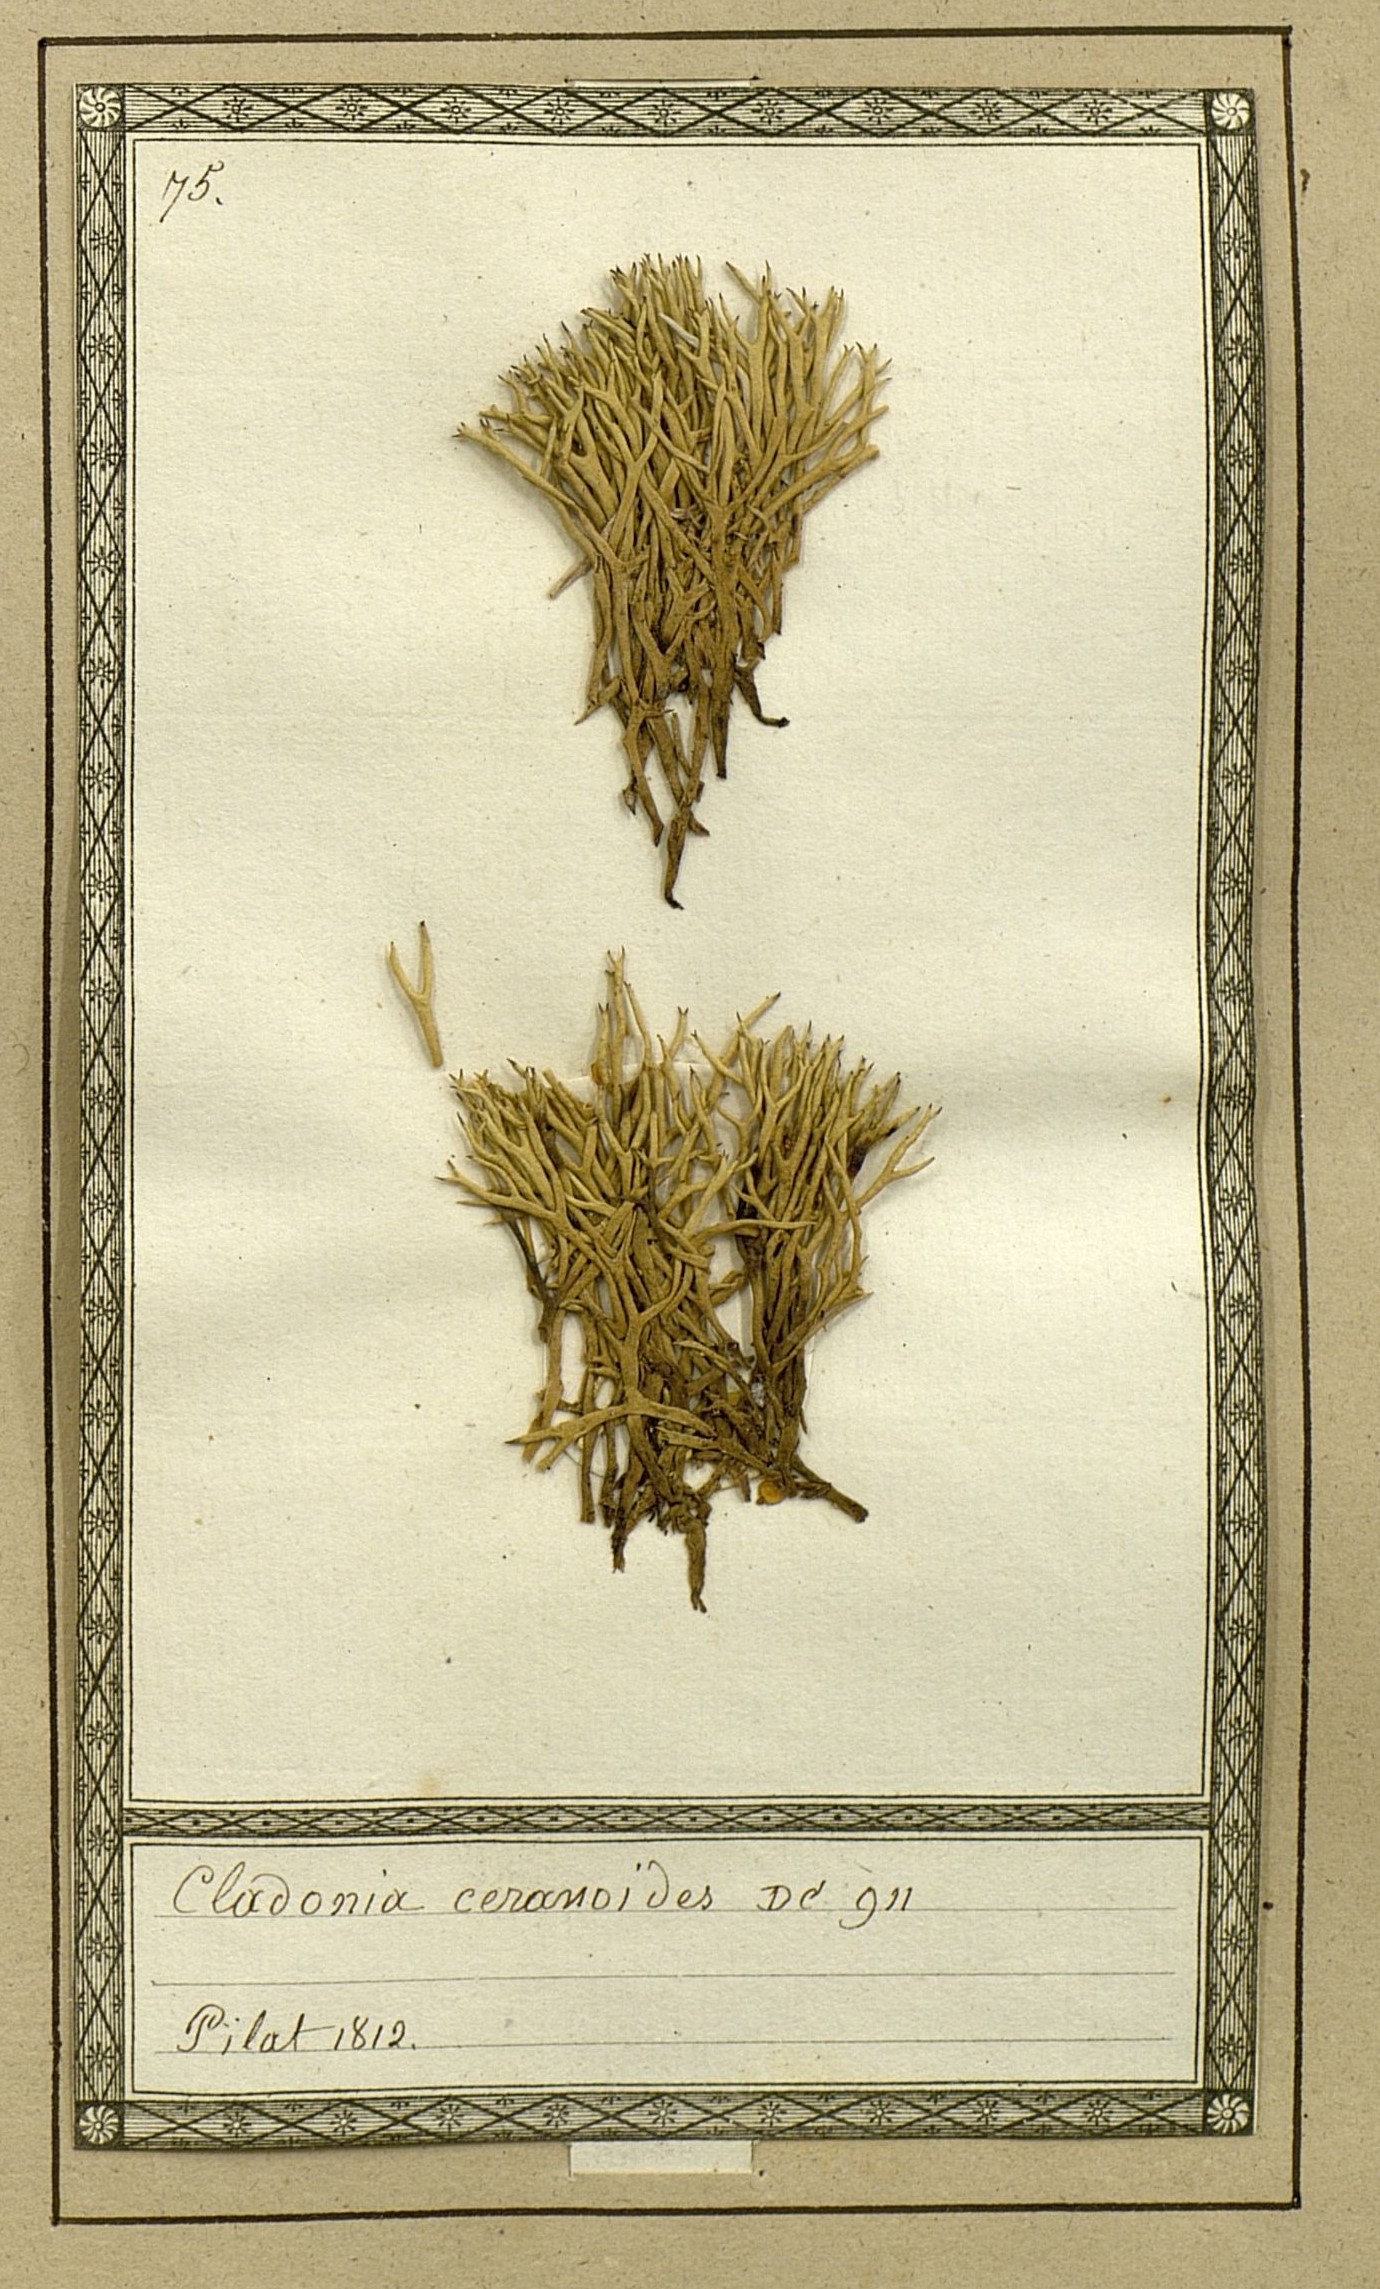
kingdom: Fungi
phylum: Ascomycota
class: Lecanoromycetes
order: Lecanorales
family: Cladoniaceae
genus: Cladonia
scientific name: Cladonia ceranoides
